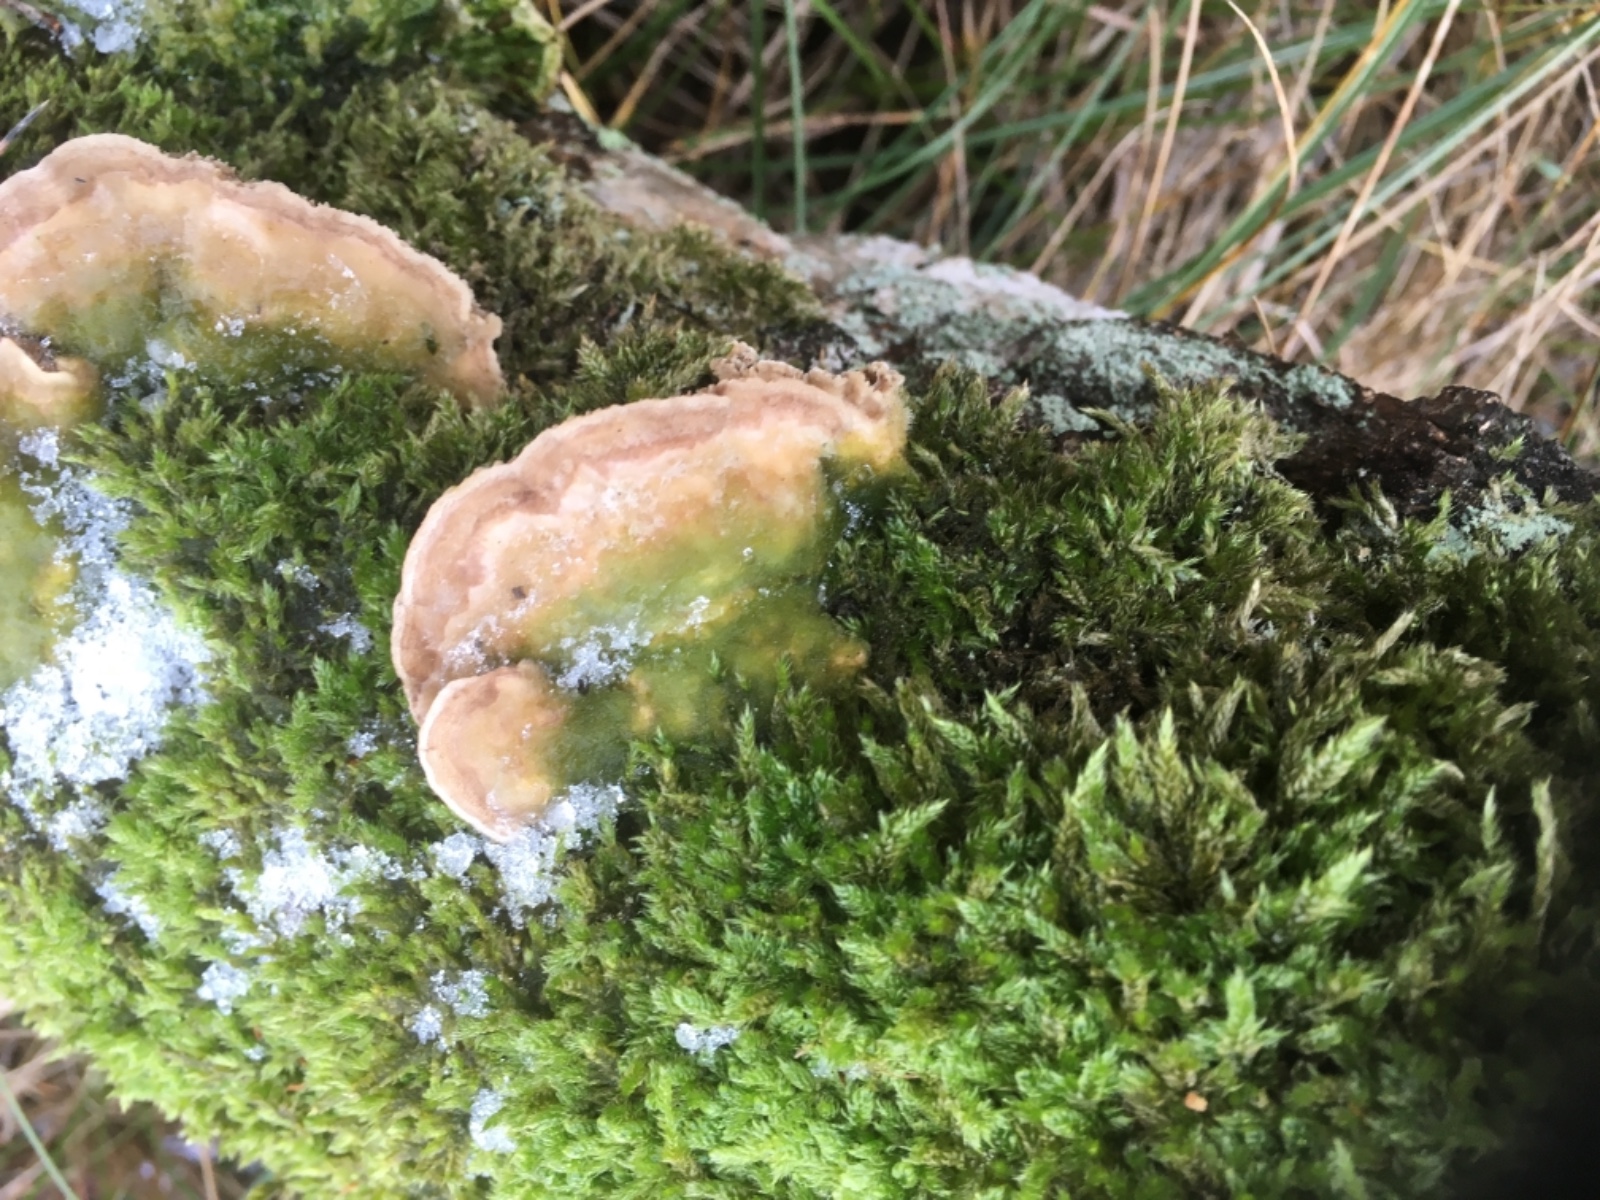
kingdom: Fungi
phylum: Basidiomycota
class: Agaricomycetes
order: Polyporales
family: Polyporaceae
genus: Lenzites
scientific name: Lenzites betulinus
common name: birke-læderporesvamp
